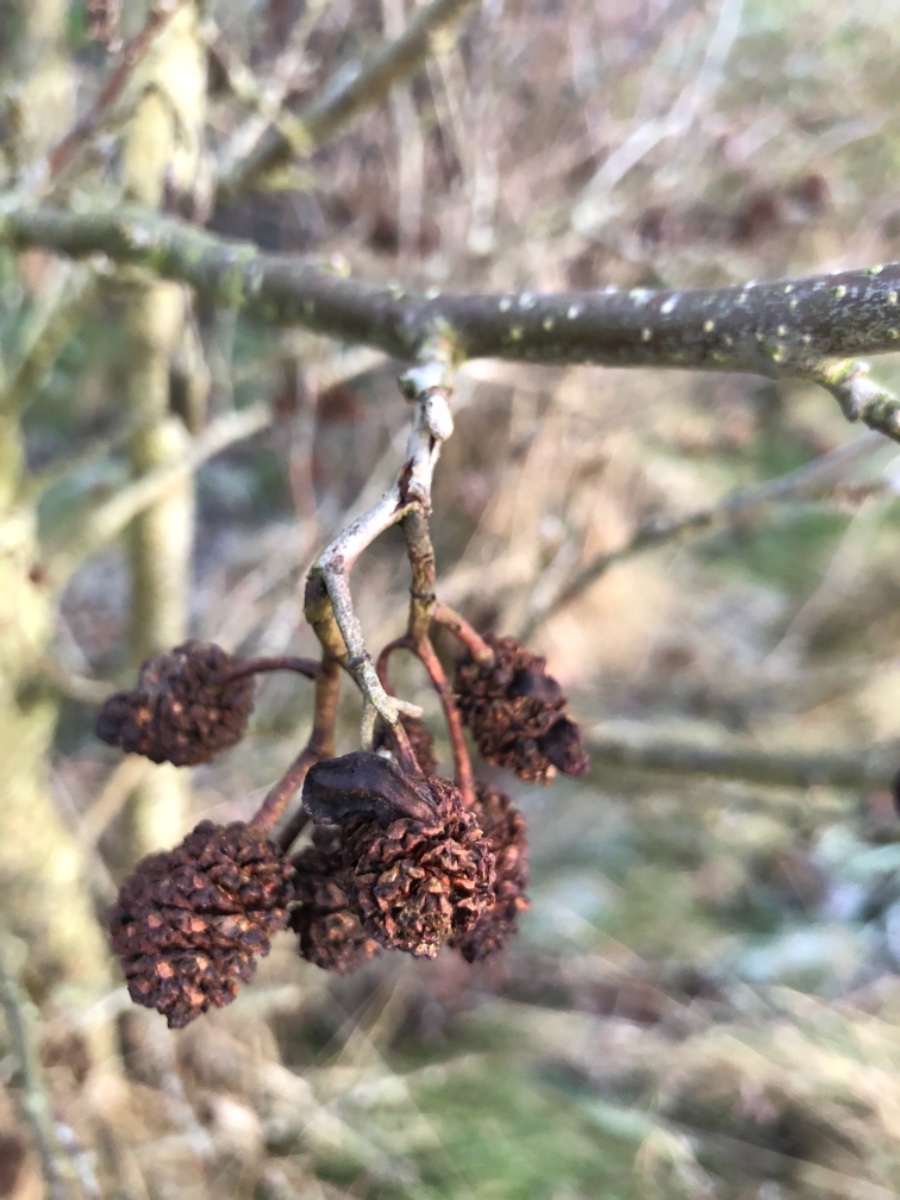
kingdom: Fungi
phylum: Ascomycota
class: Taphrinomycetes
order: Taphrinales
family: Taphrinaceae
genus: Taphrina
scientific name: Taphrina alni
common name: Alder tongue
